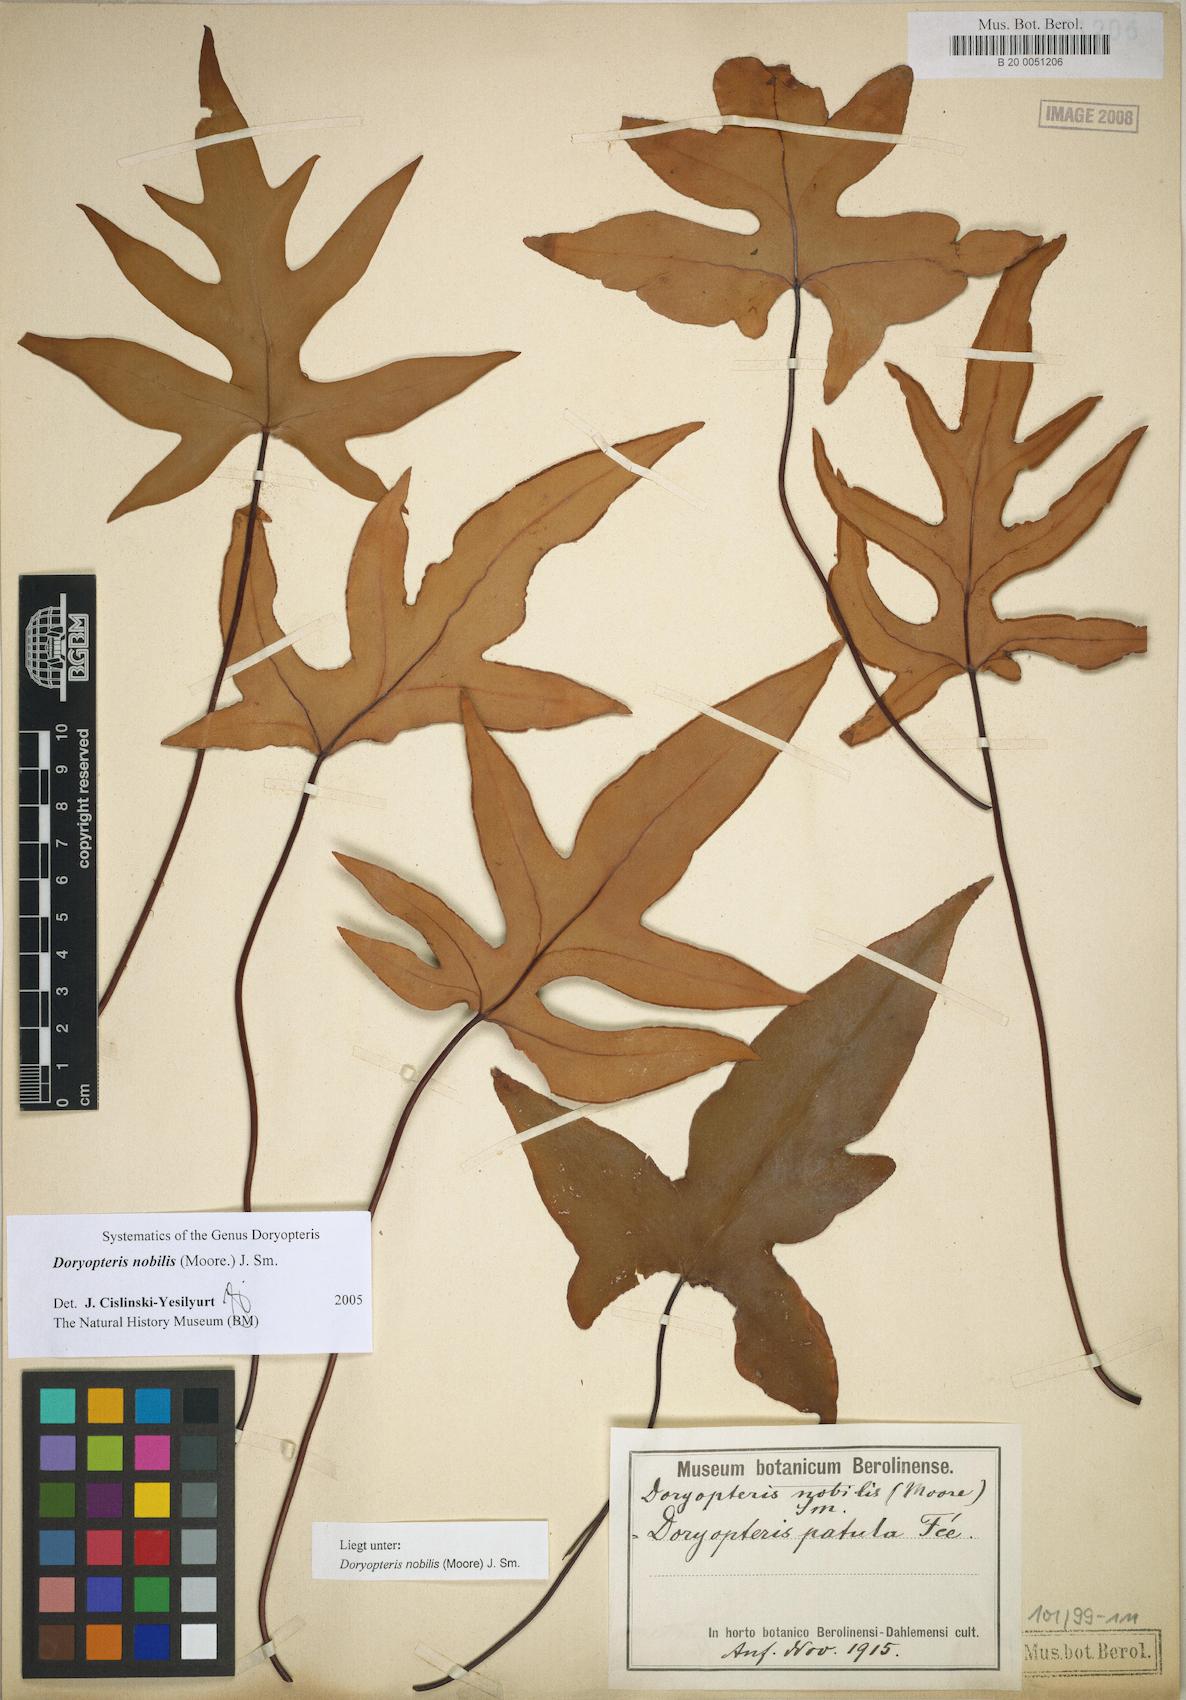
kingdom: Plantae
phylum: Tracheophyta
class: Polypodiopsida
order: Polypodiales
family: Pteridaceae
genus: Hemionitis
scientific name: Hemionitis Doryopteris patula
